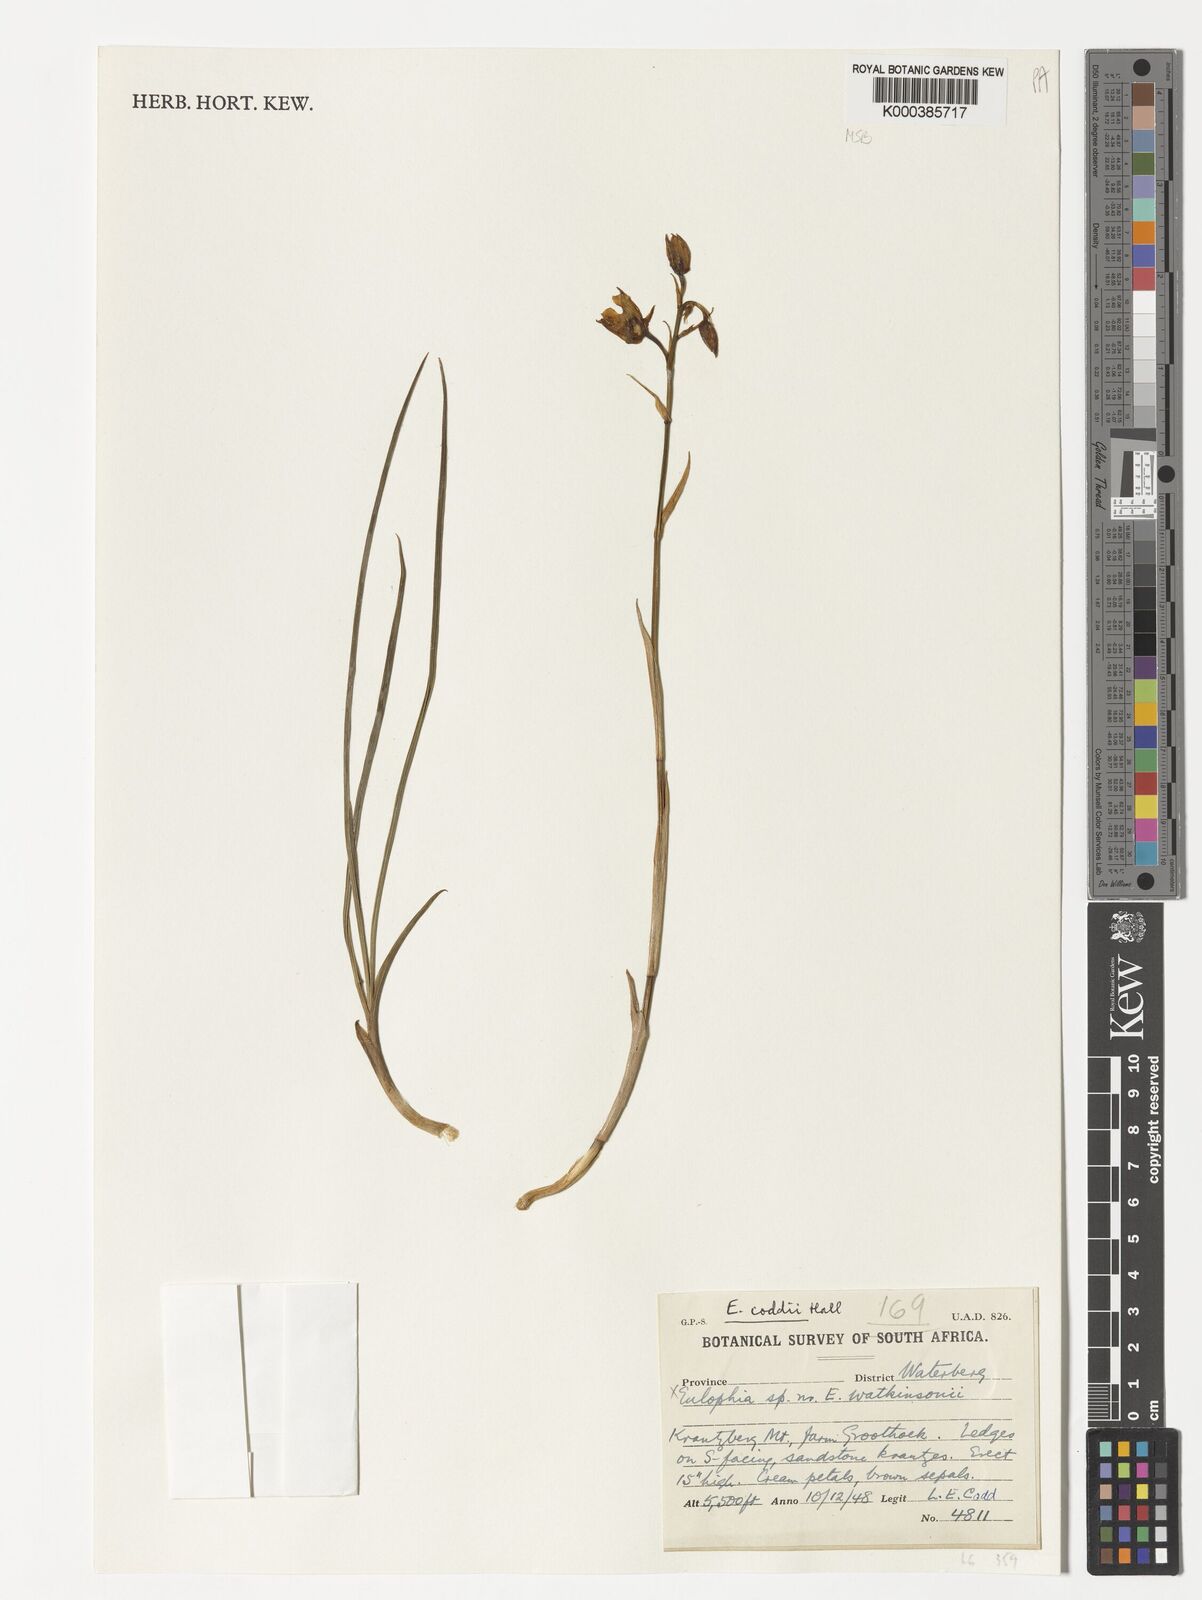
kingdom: Plantae
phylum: Tracheophyta
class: Liliopsida
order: Asparagales
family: Orchidaceae
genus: Eulophia
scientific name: Eulophia coddii
